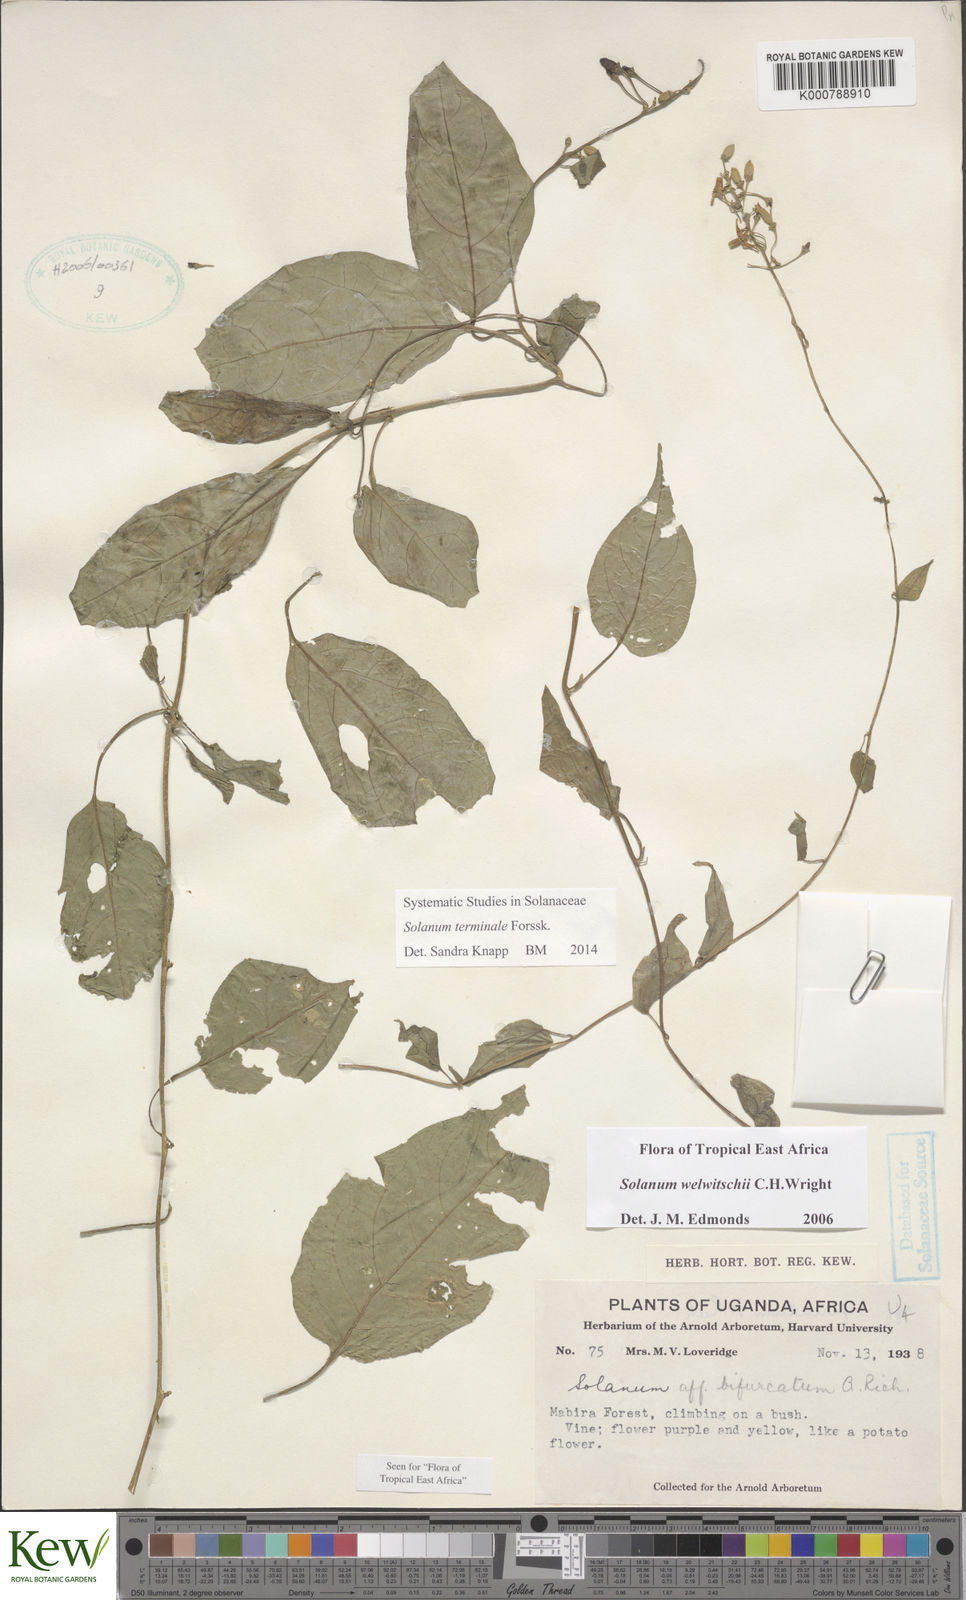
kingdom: Plantae
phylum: Tracheophyta
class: Magnoliopsida
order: Solanales
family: Solanaceae
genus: Solanum
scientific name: Solanum terminale
